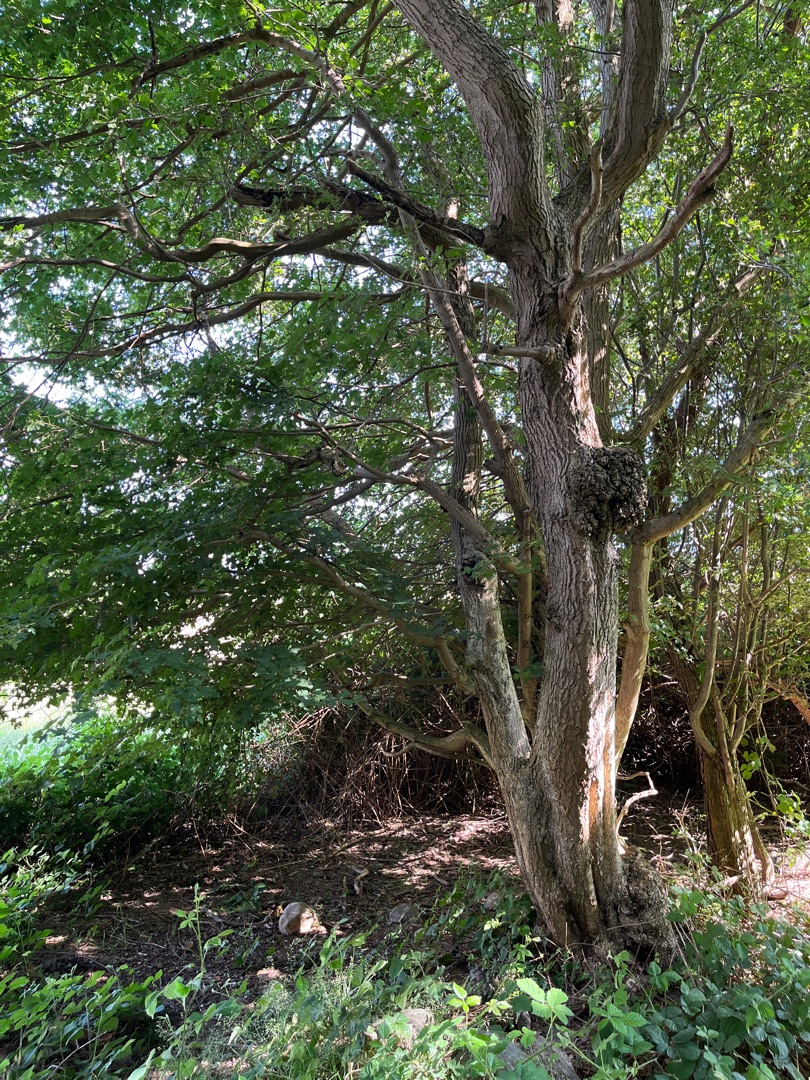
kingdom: Plantae
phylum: Tracheophyta
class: Magnoliopsida
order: Sapindales
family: Sapindaceae
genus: Acer
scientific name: Acer campestre
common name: Navr
